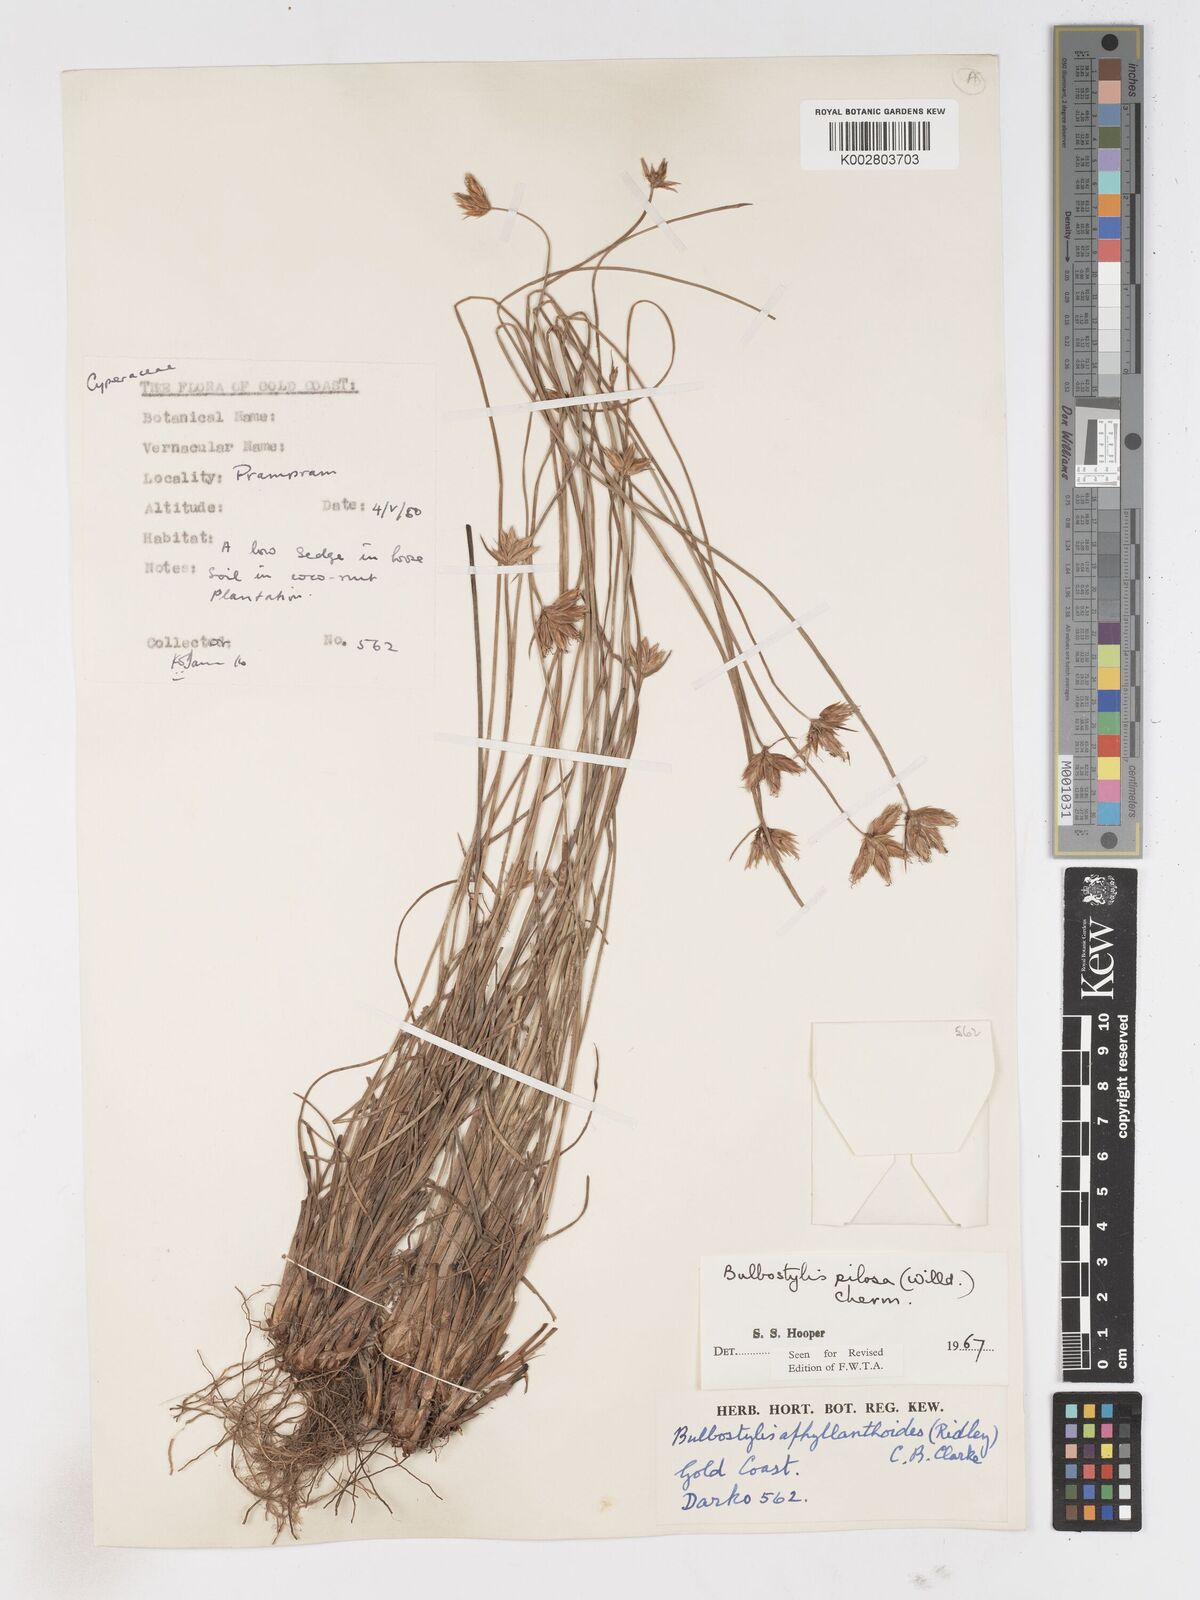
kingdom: Plantae
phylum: Tracheophyta
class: Liliopsida
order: Poales
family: Cyperaceae
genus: Bulbostylis
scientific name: Bulbostylis pilosa
